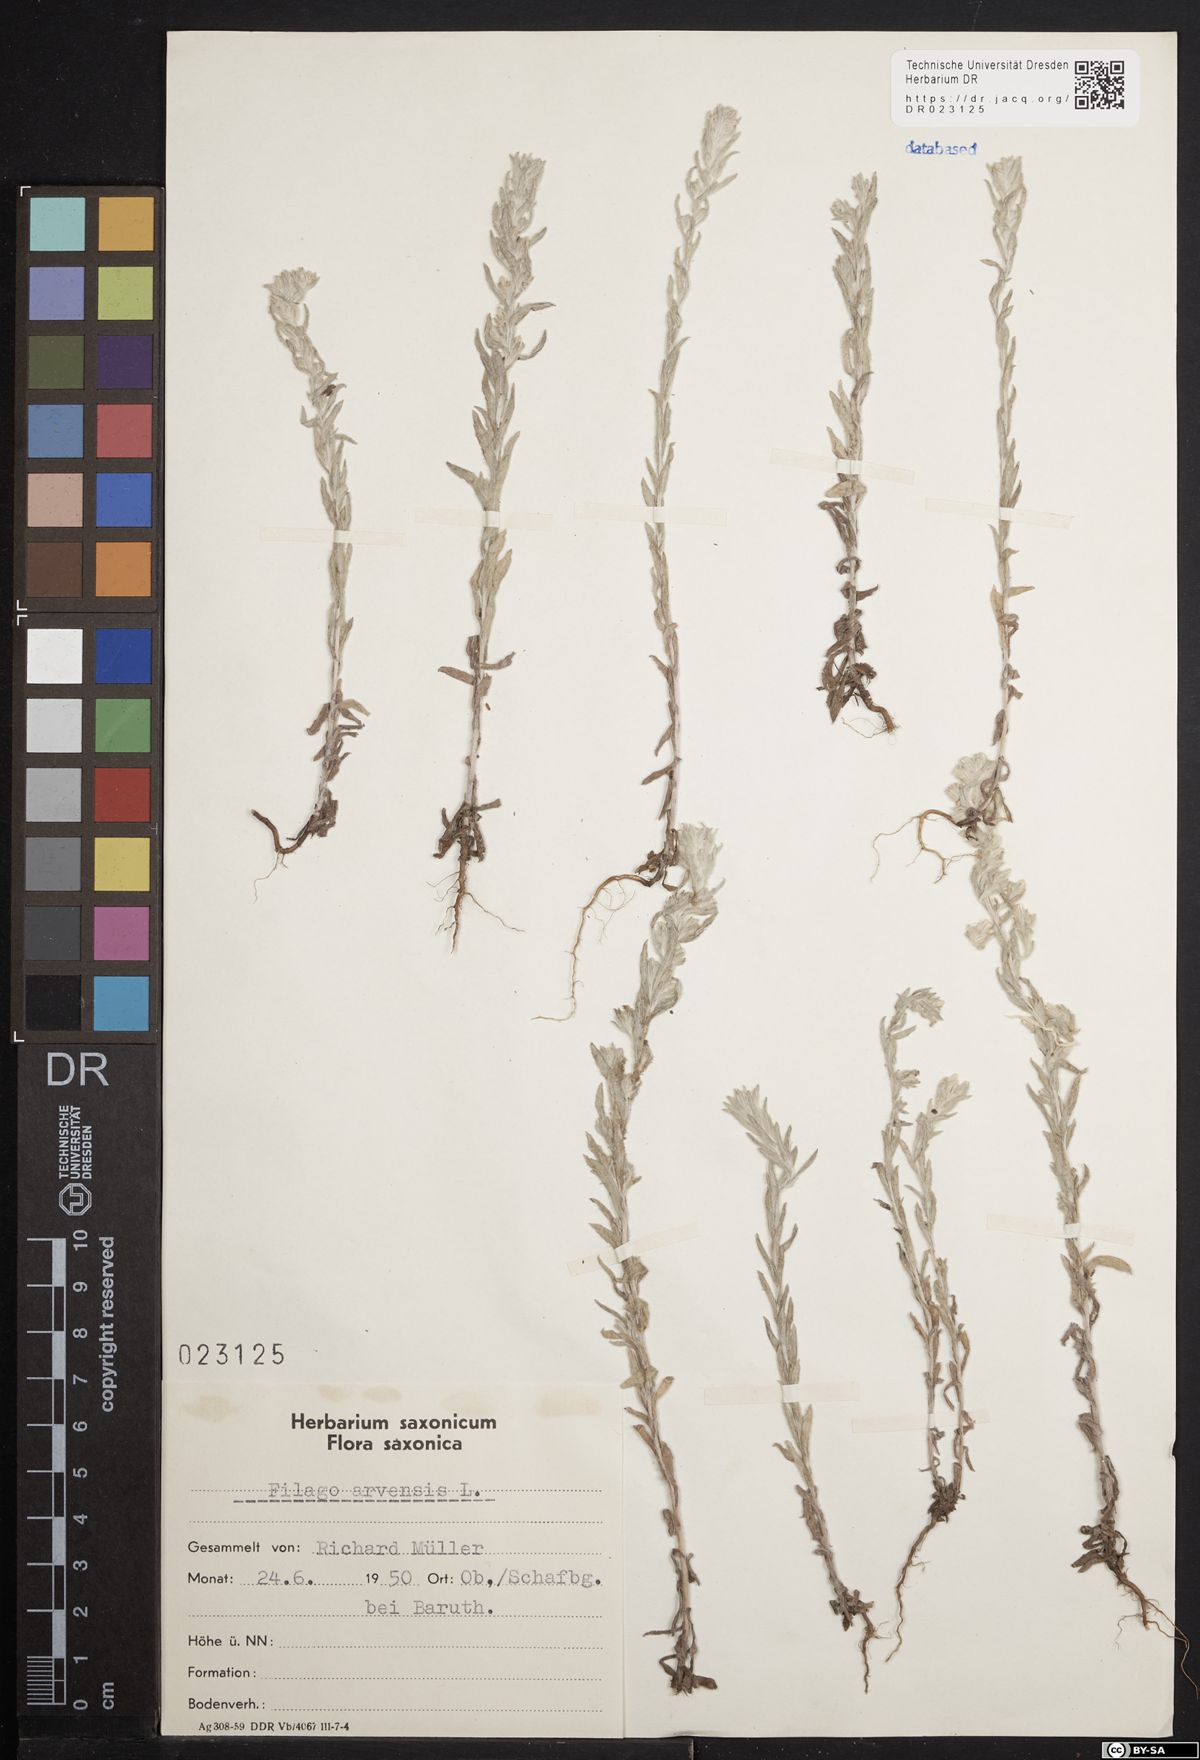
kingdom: Plantae
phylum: Tracheophyta
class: Magnoliopsida
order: Asterales
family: Asteraceae
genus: Filago
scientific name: Filago arvensis
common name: Field cudweed
